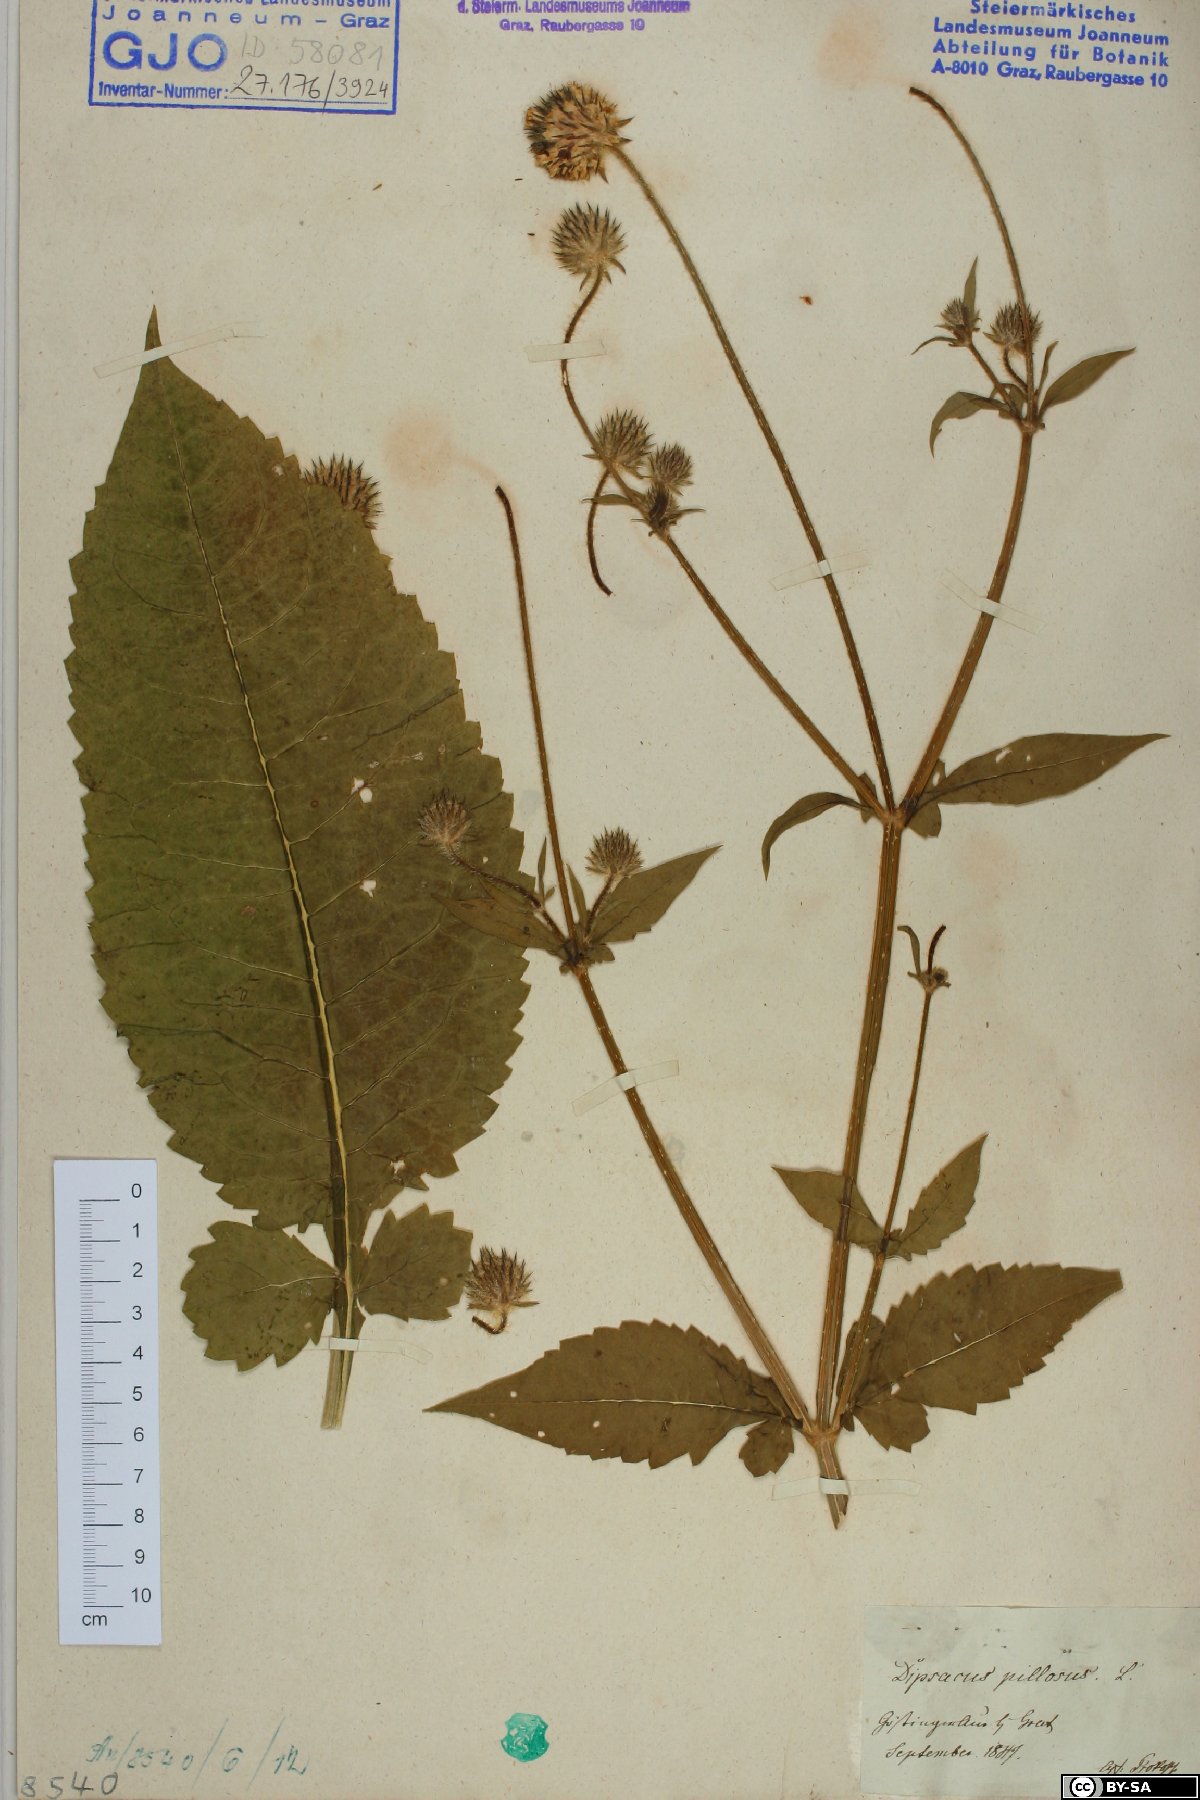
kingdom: Plantae
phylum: Tracheophyta
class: Magnoliopsida
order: Dipsacales
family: Caprifoliaceae
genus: Dipsacus
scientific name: Dipsacus pilosus
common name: Small teasel
